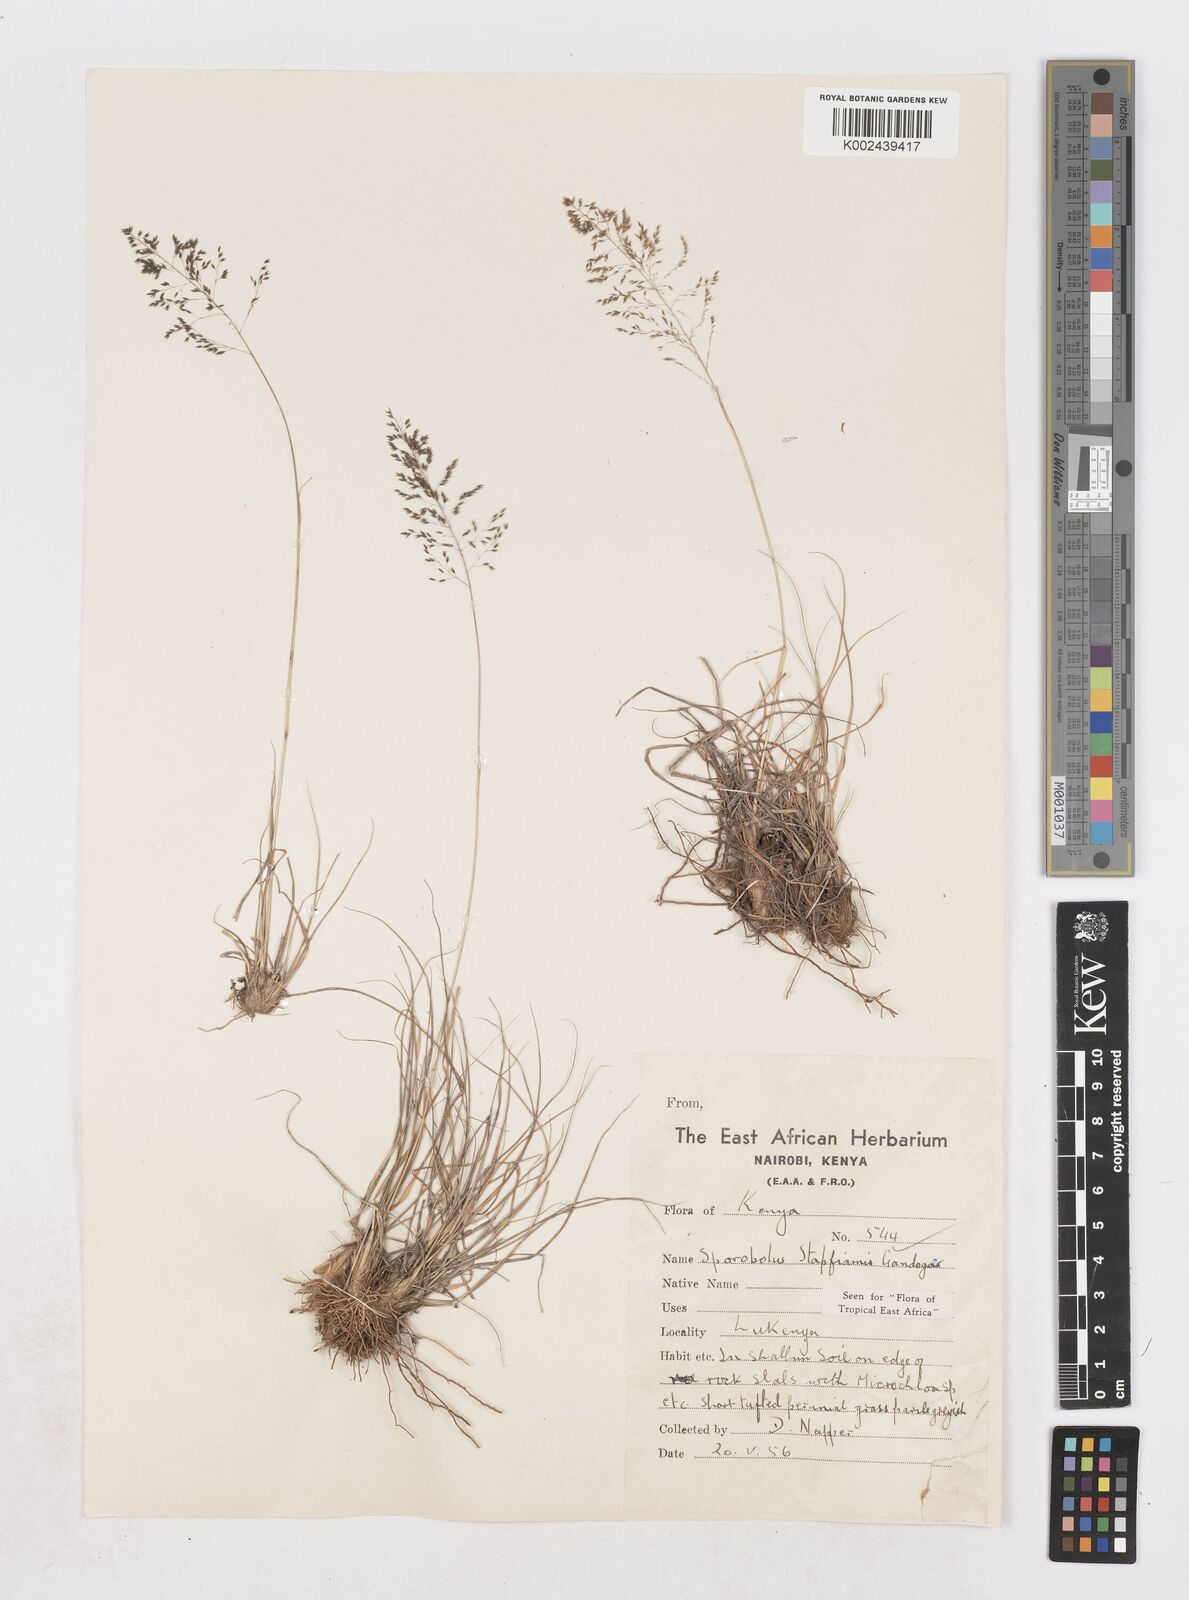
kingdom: Plantae
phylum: Tracheophyta
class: Liliopsida
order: Poales
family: Poaceae
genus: Sporobolus
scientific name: Sporobolus stapfianus
